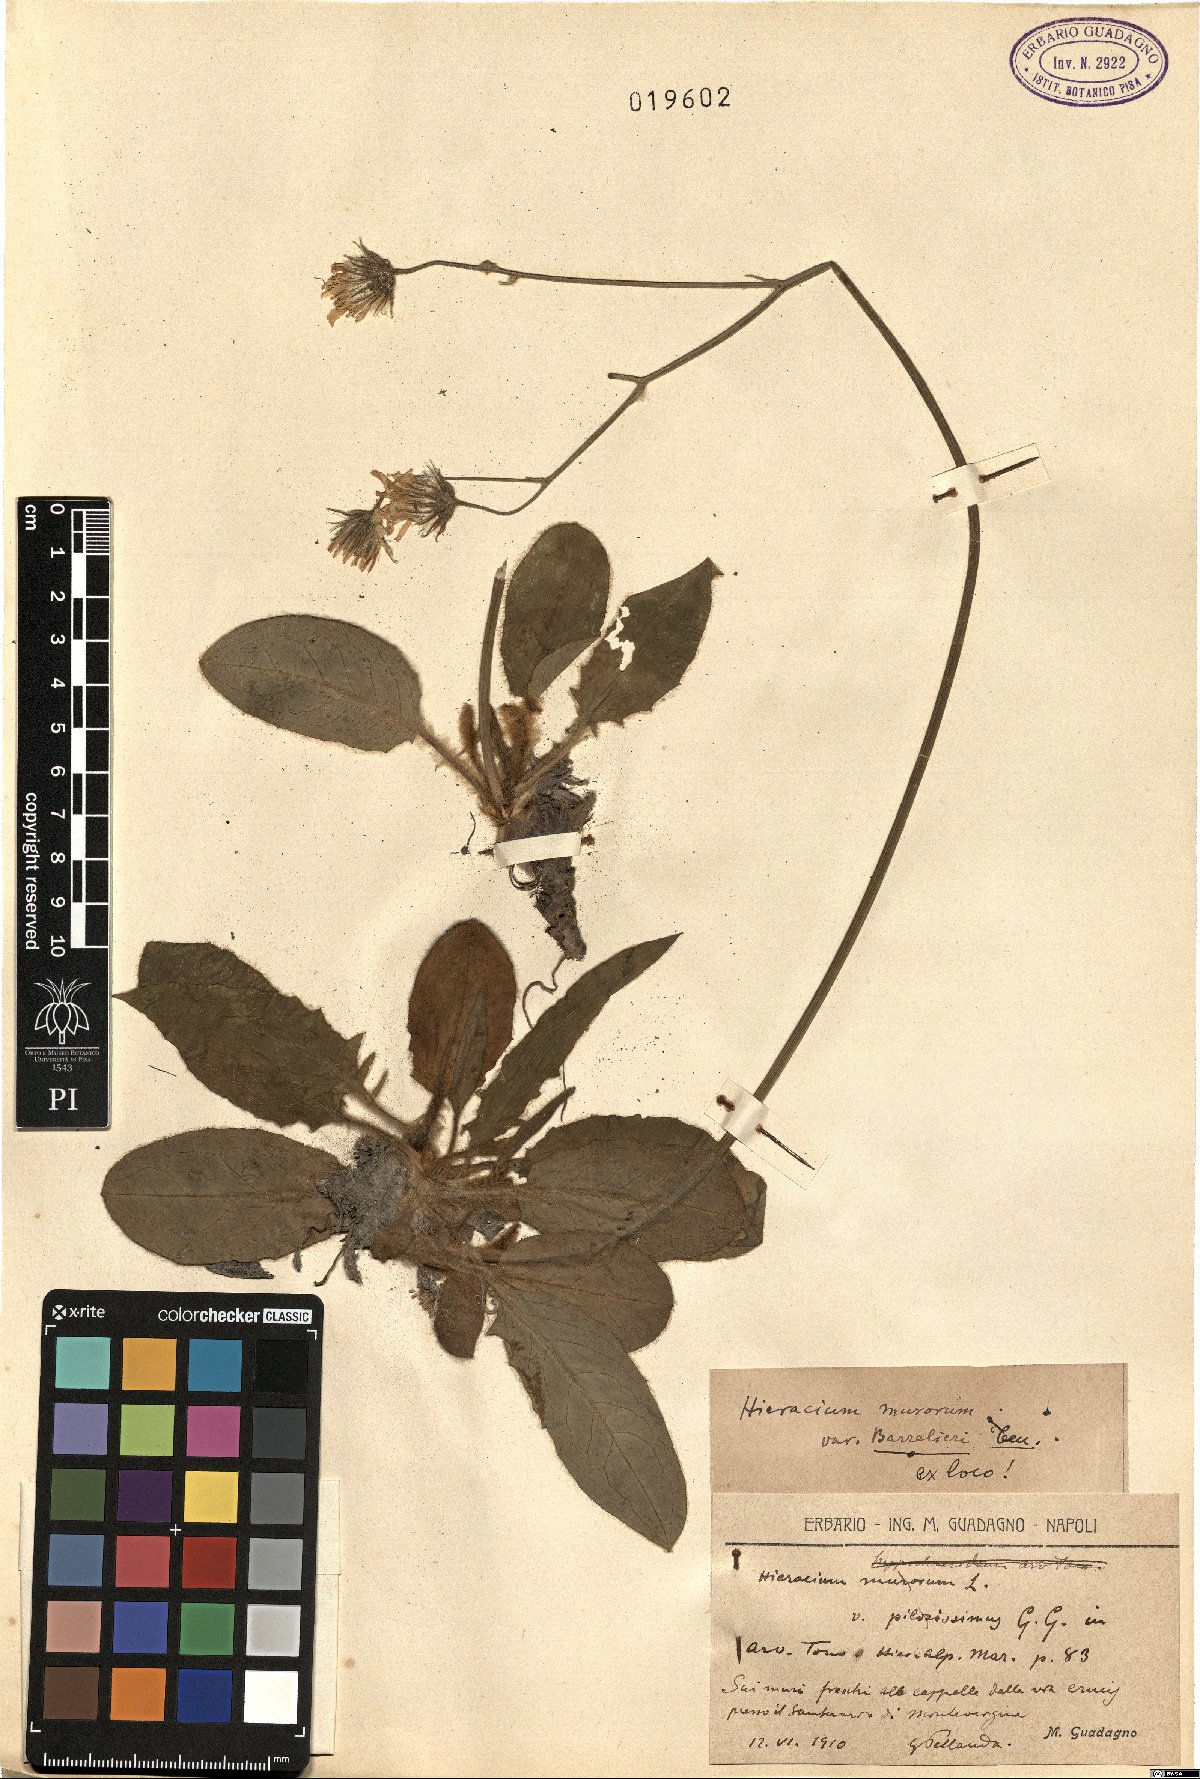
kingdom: Plantae
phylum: Tracheophyta
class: Magnoliopsida
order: Asterales
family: Asteraceae
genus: Hieracium
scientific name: Hieracium murorum
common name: Wall hawkweed
